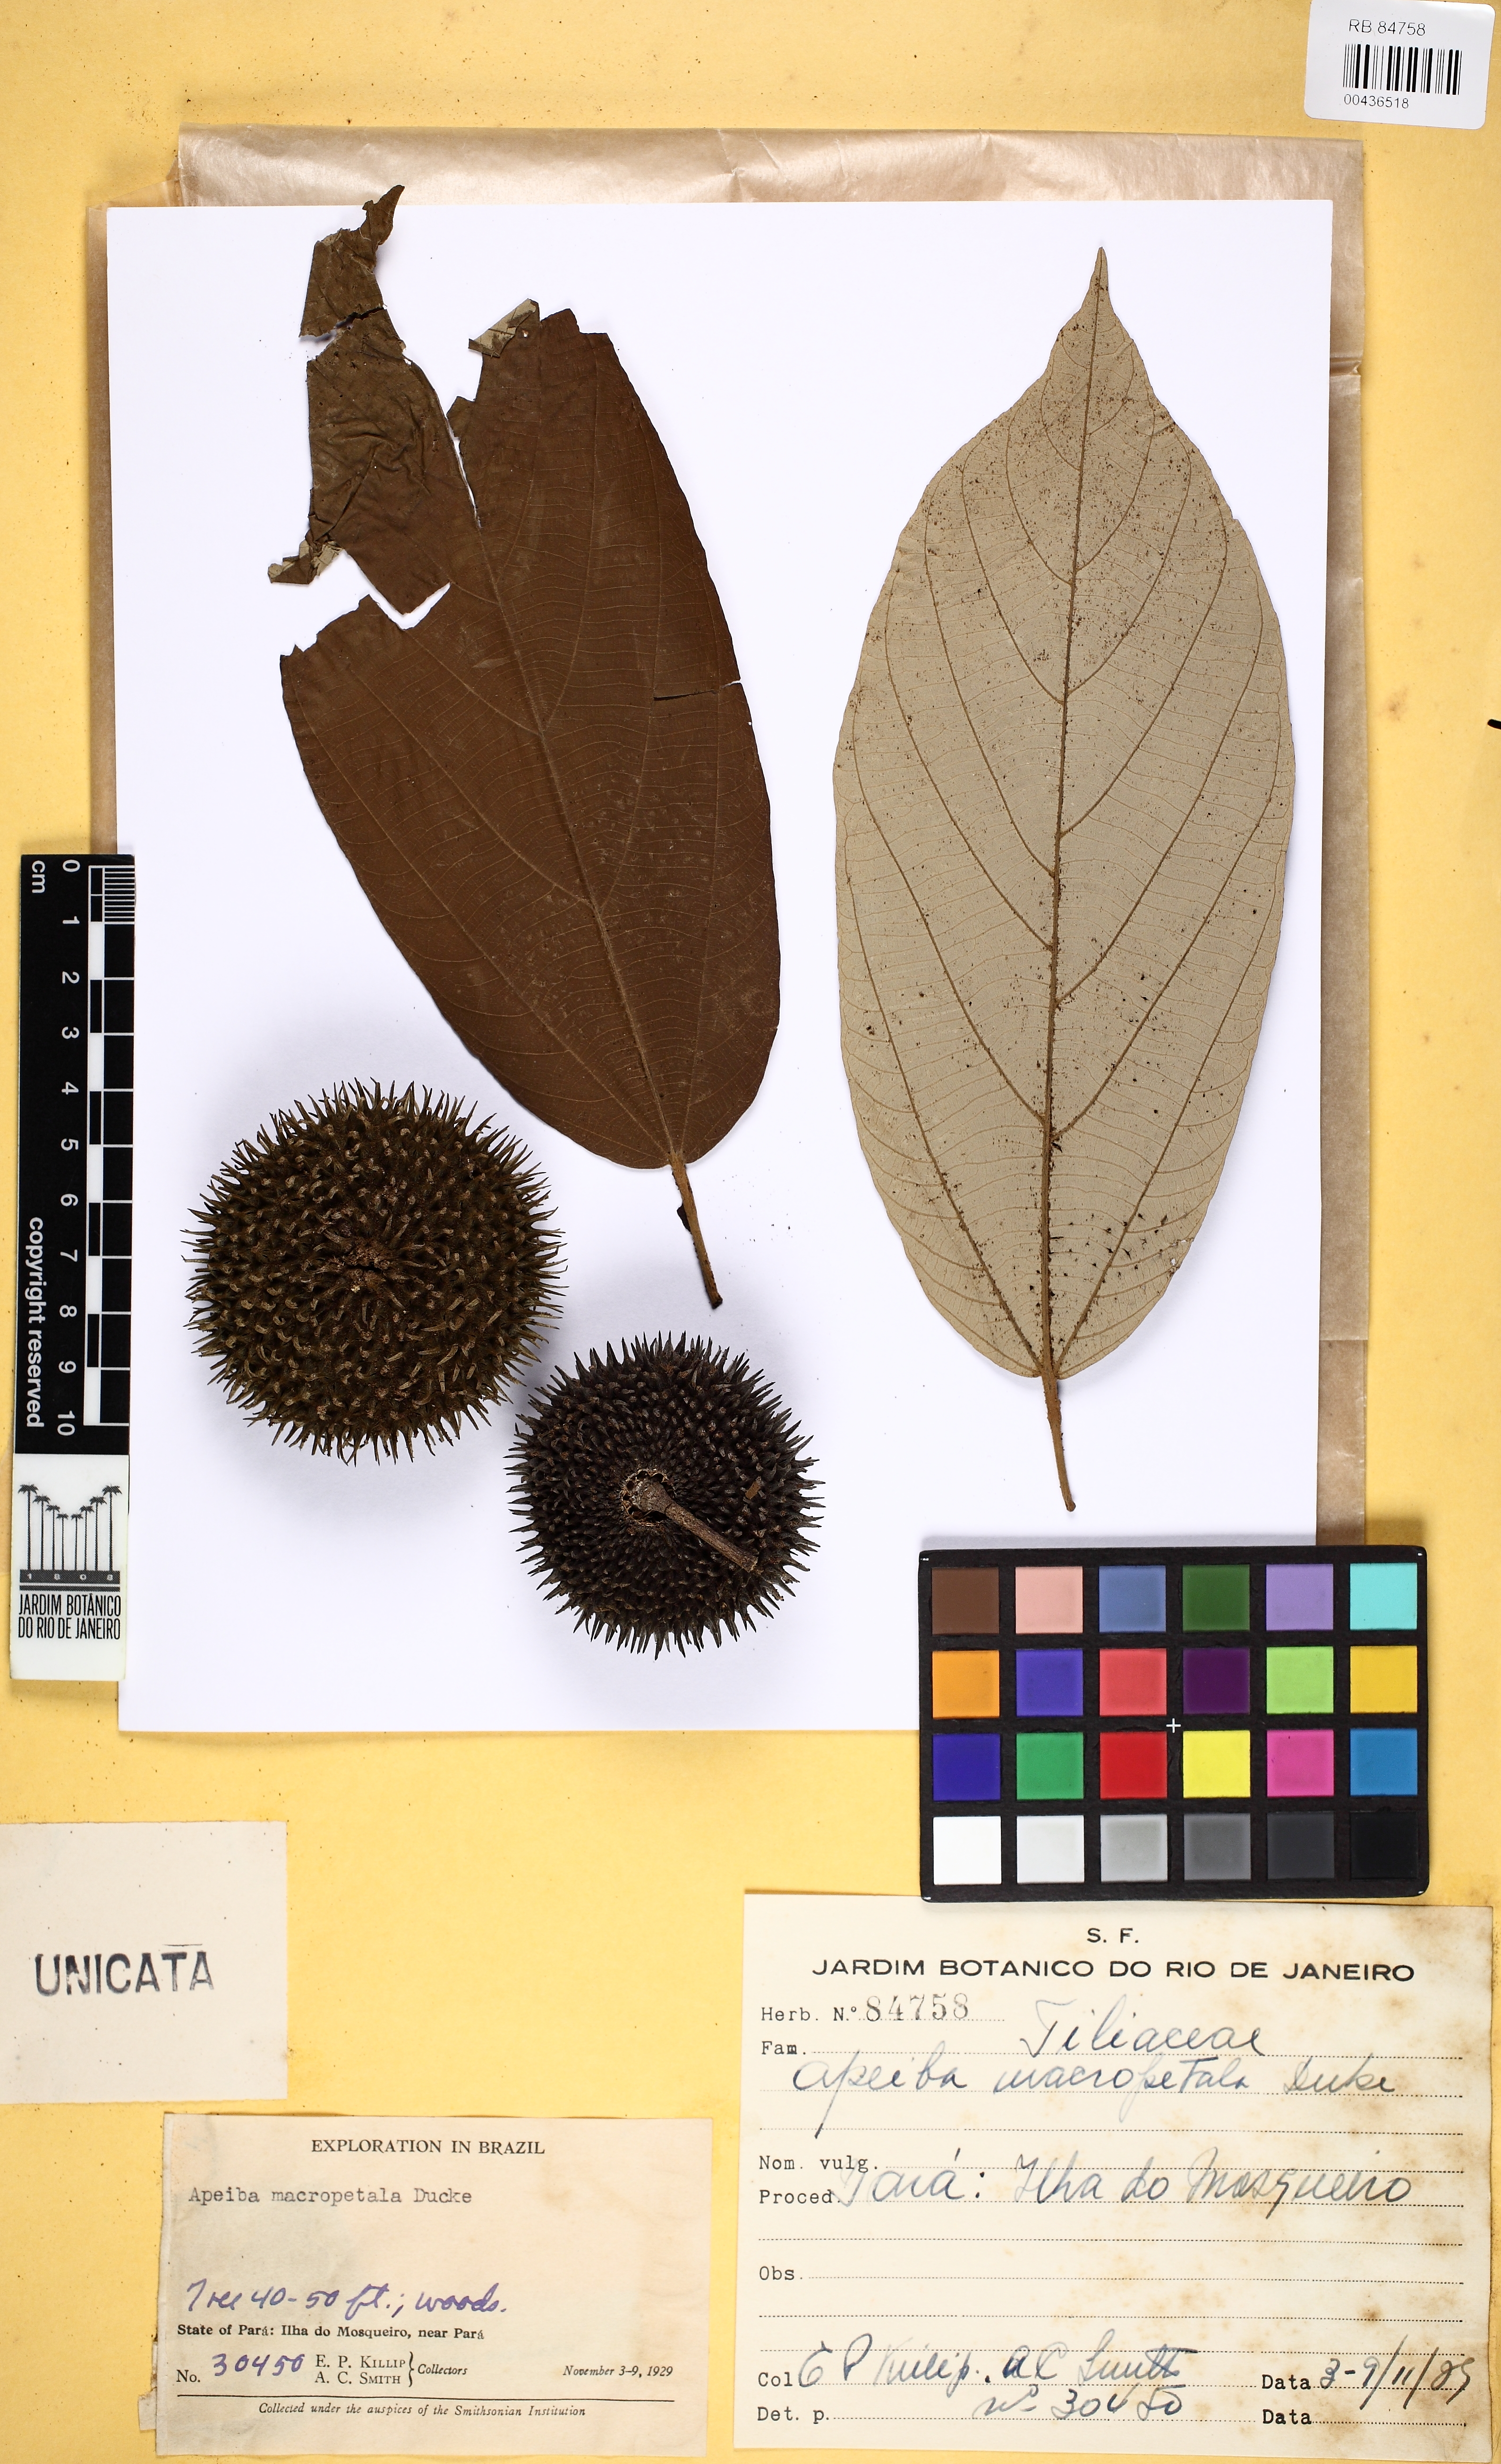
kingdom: Plantae
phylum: Tracheophyta
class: Magnoliopsida
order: Malvales
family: Malvaceae
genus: Apeiba
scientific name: Apeiba macropetala
